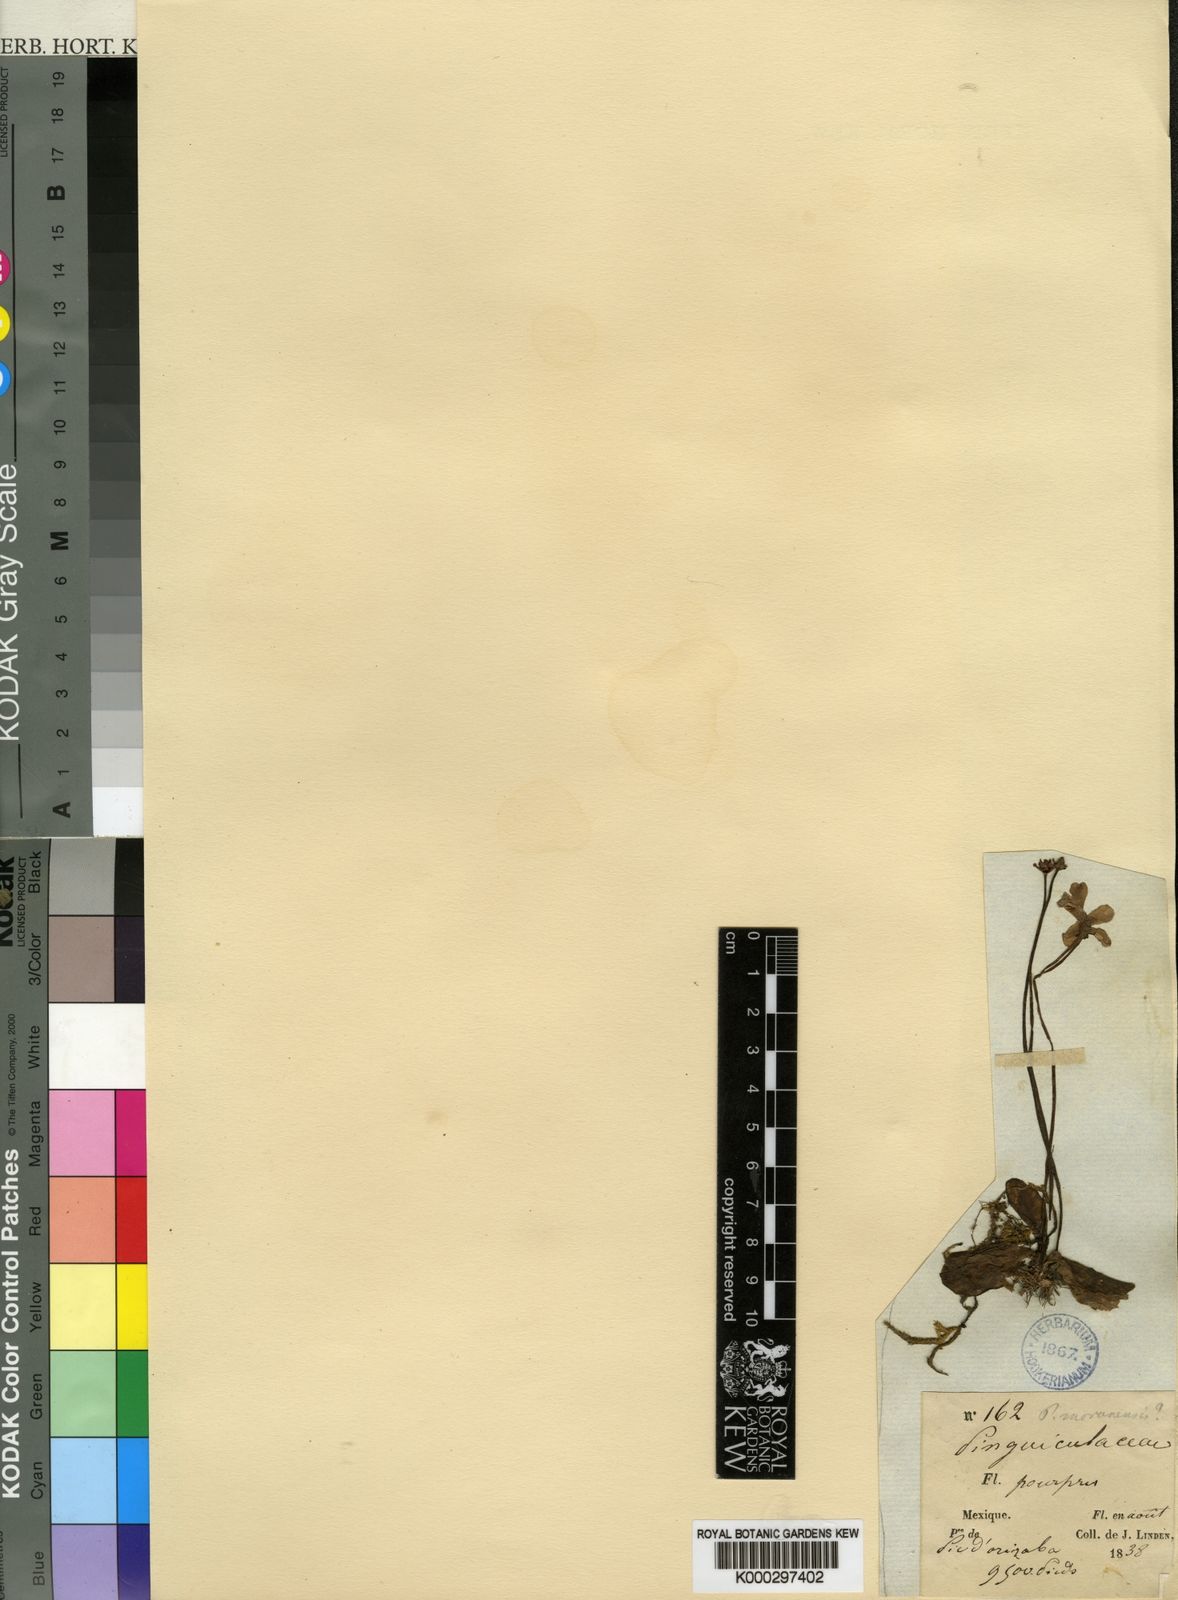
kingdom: Plantae
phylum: Tracheophyta
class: Magnoliopsida
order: Lamiales
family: Lentibulariaceae
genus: Pinguicula
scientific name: Pinguicula moranensis
